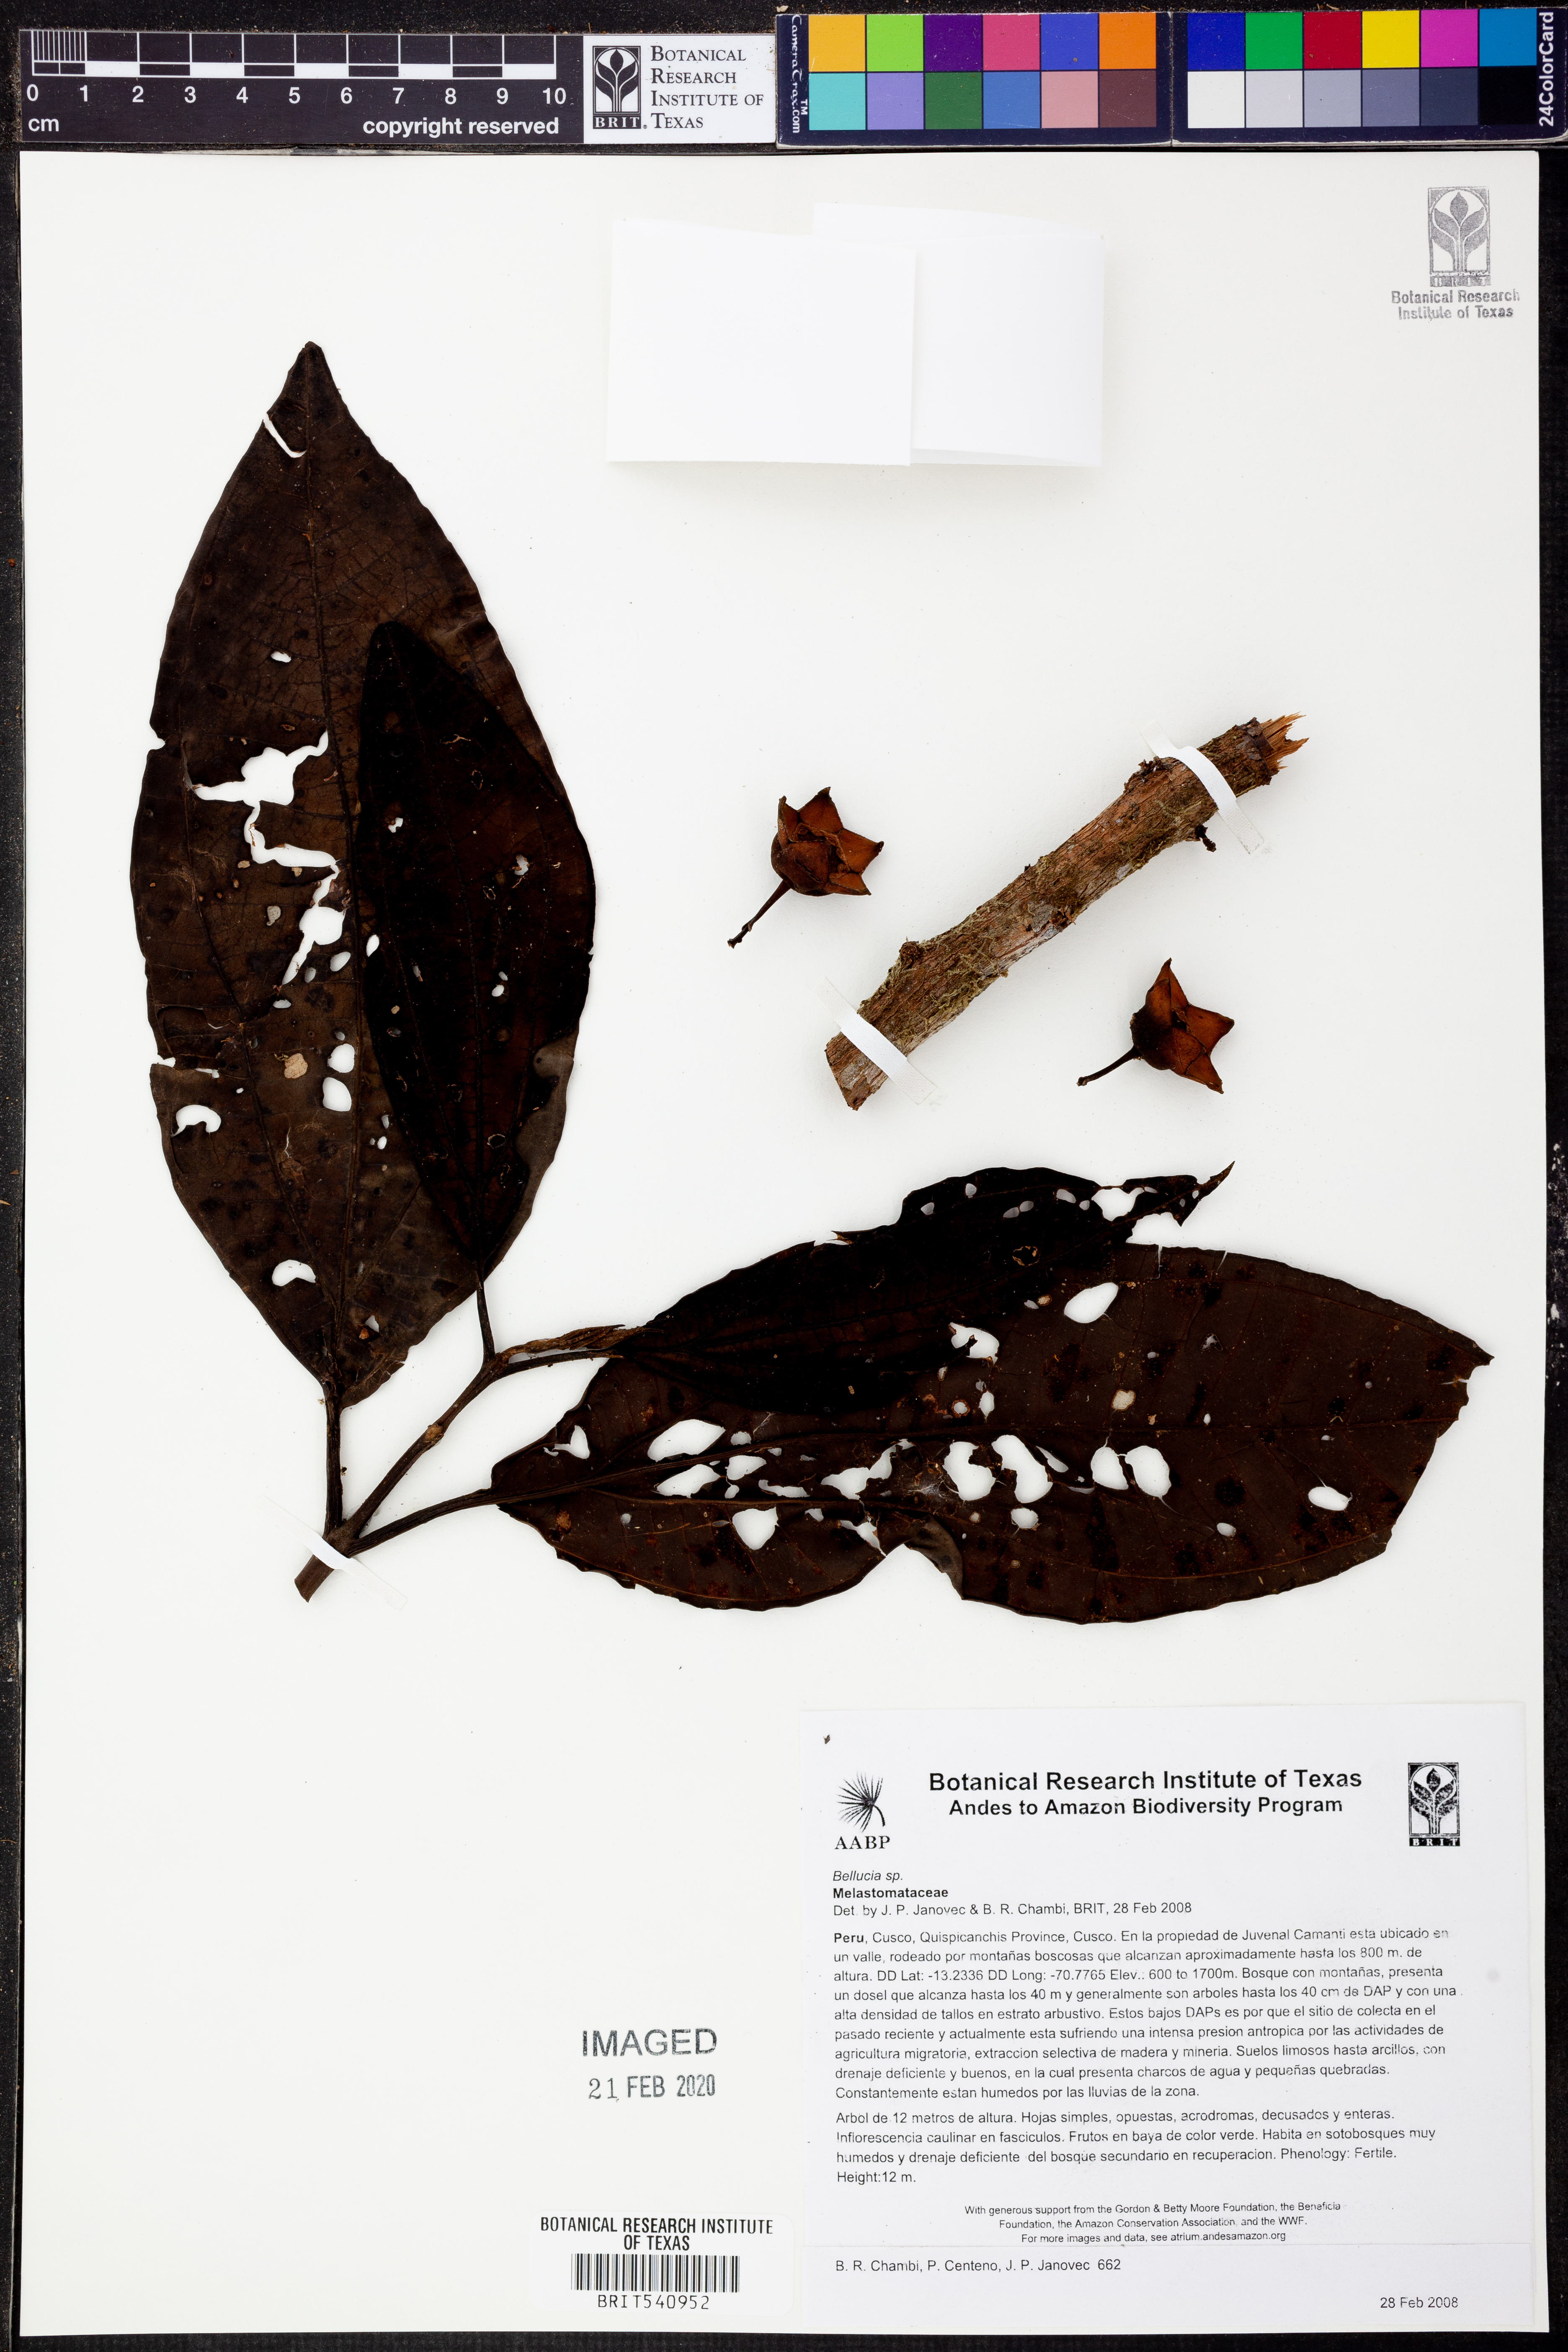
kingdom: Plantae
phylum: Tracheophyta
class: Magnoliopsida
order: Myrtales
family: Melastomataceae
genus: Bellucia
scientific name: Bellucia
